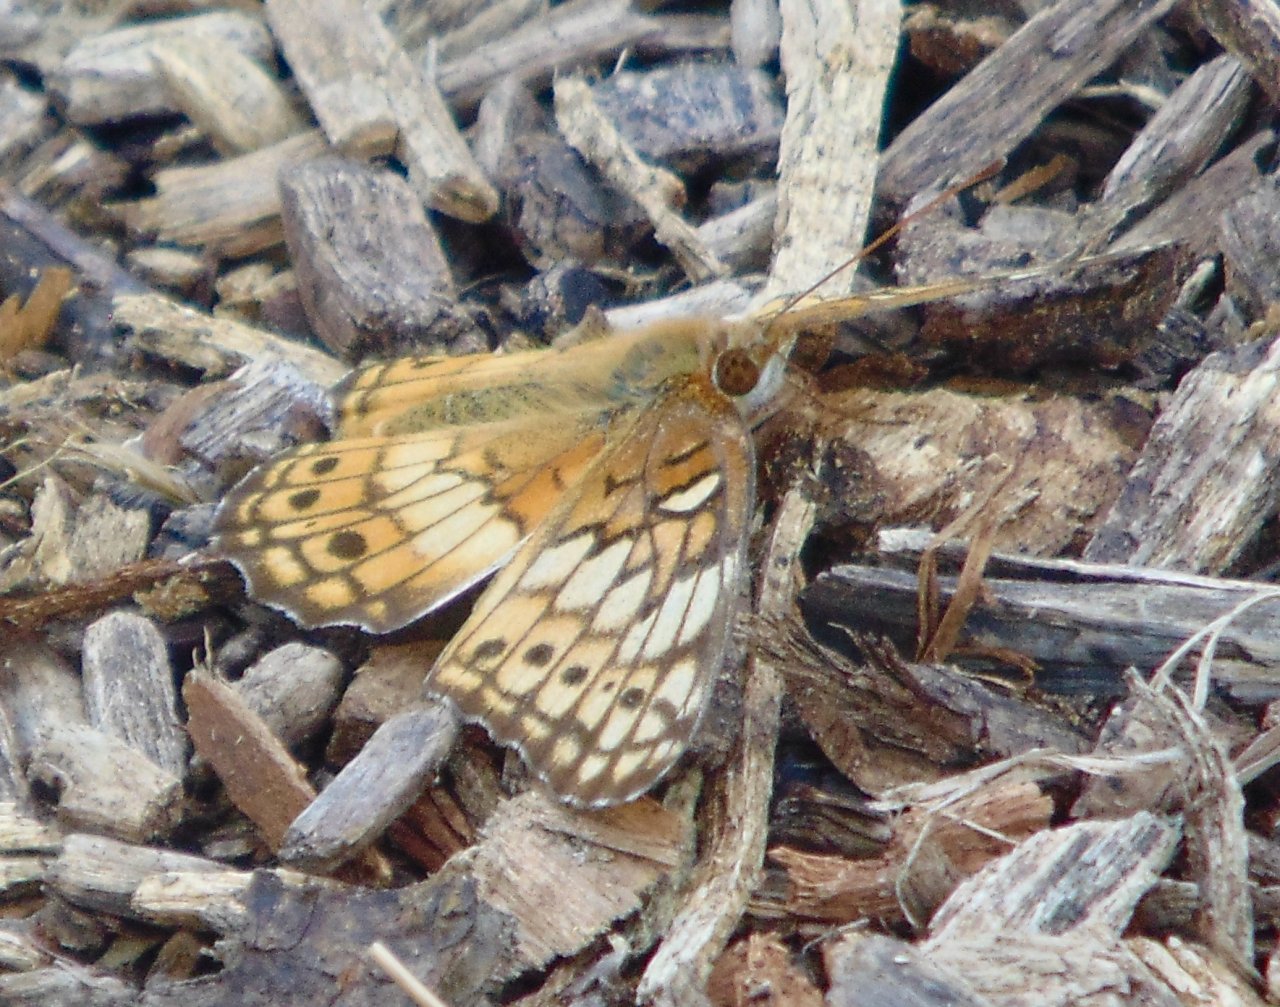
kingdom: Animalia
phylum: Arthropoda
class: Insecta
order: Lepidoptera
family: Nymphalidae
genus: Euptoieta
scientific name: Euptoieta claudia
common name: Variegated Fritillary
